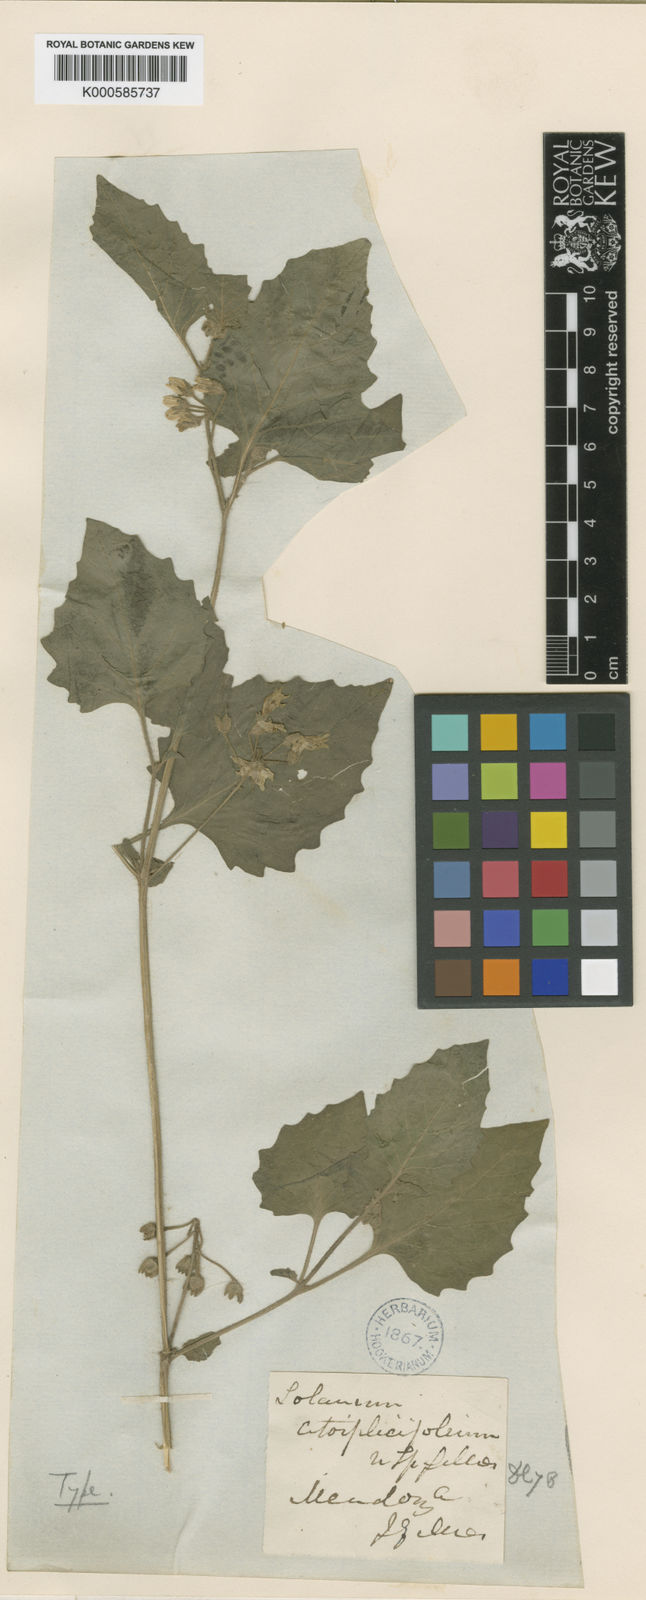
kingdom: Plantae
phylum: Tracheophyta
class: Magnoliopsida
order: Solanales
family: Solanaceae
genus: Solanum
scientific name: Solanum
